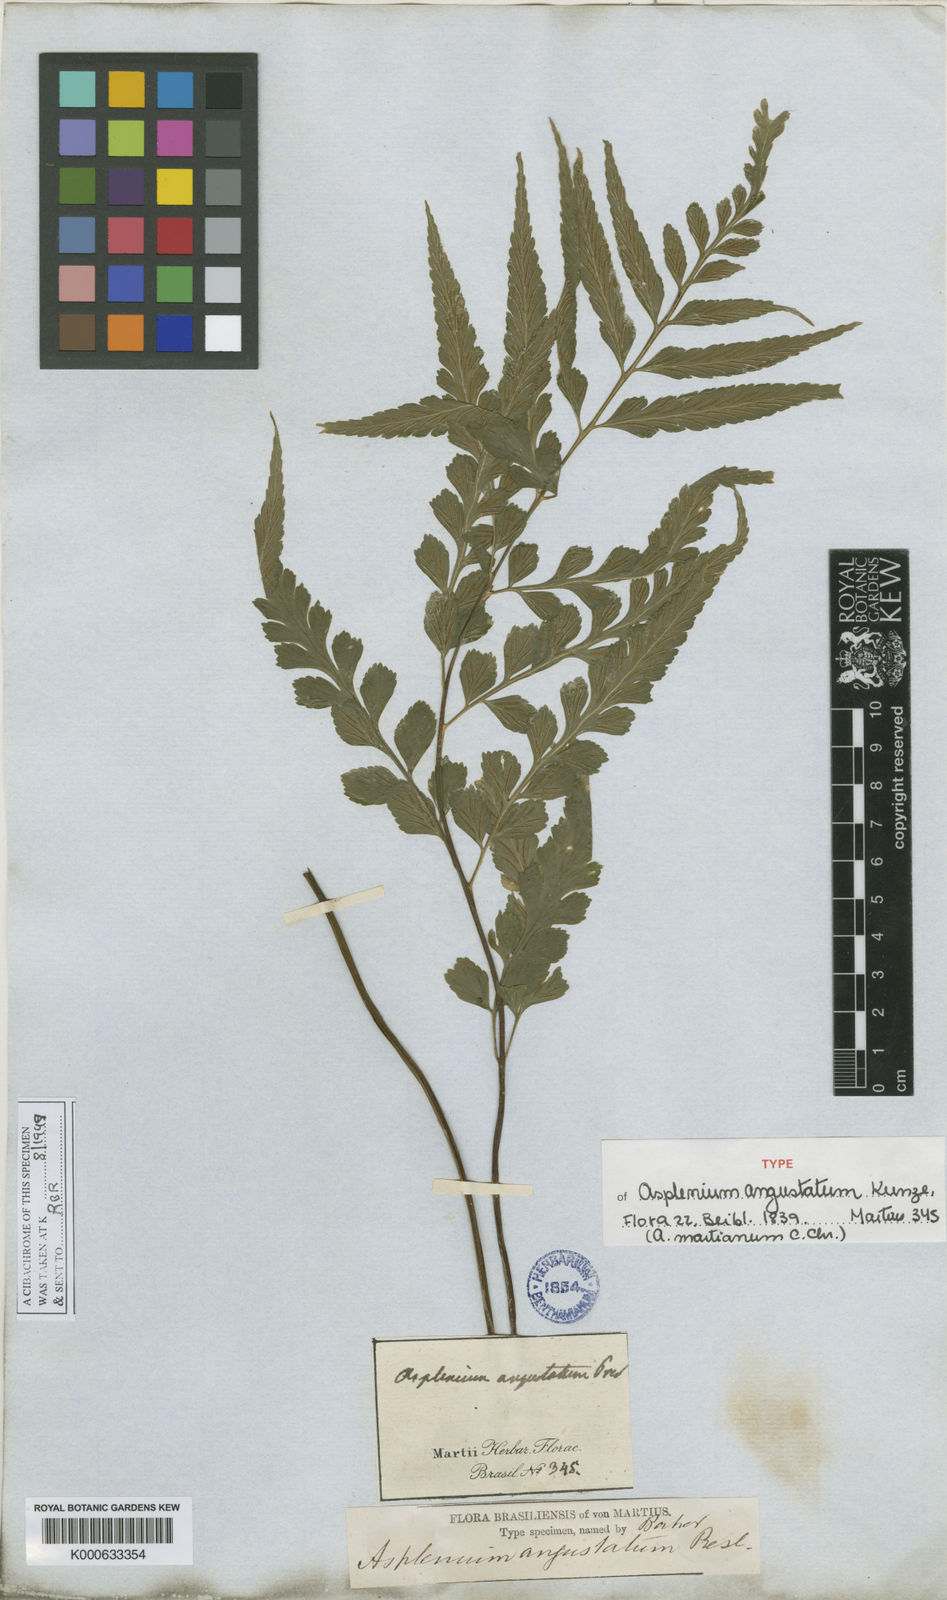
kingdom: Plantae
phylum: Tracheophyta
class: Polypodiopsida
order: Polypodiales
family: Aspleniaceae
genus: Asplenium
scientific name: Asplenium
